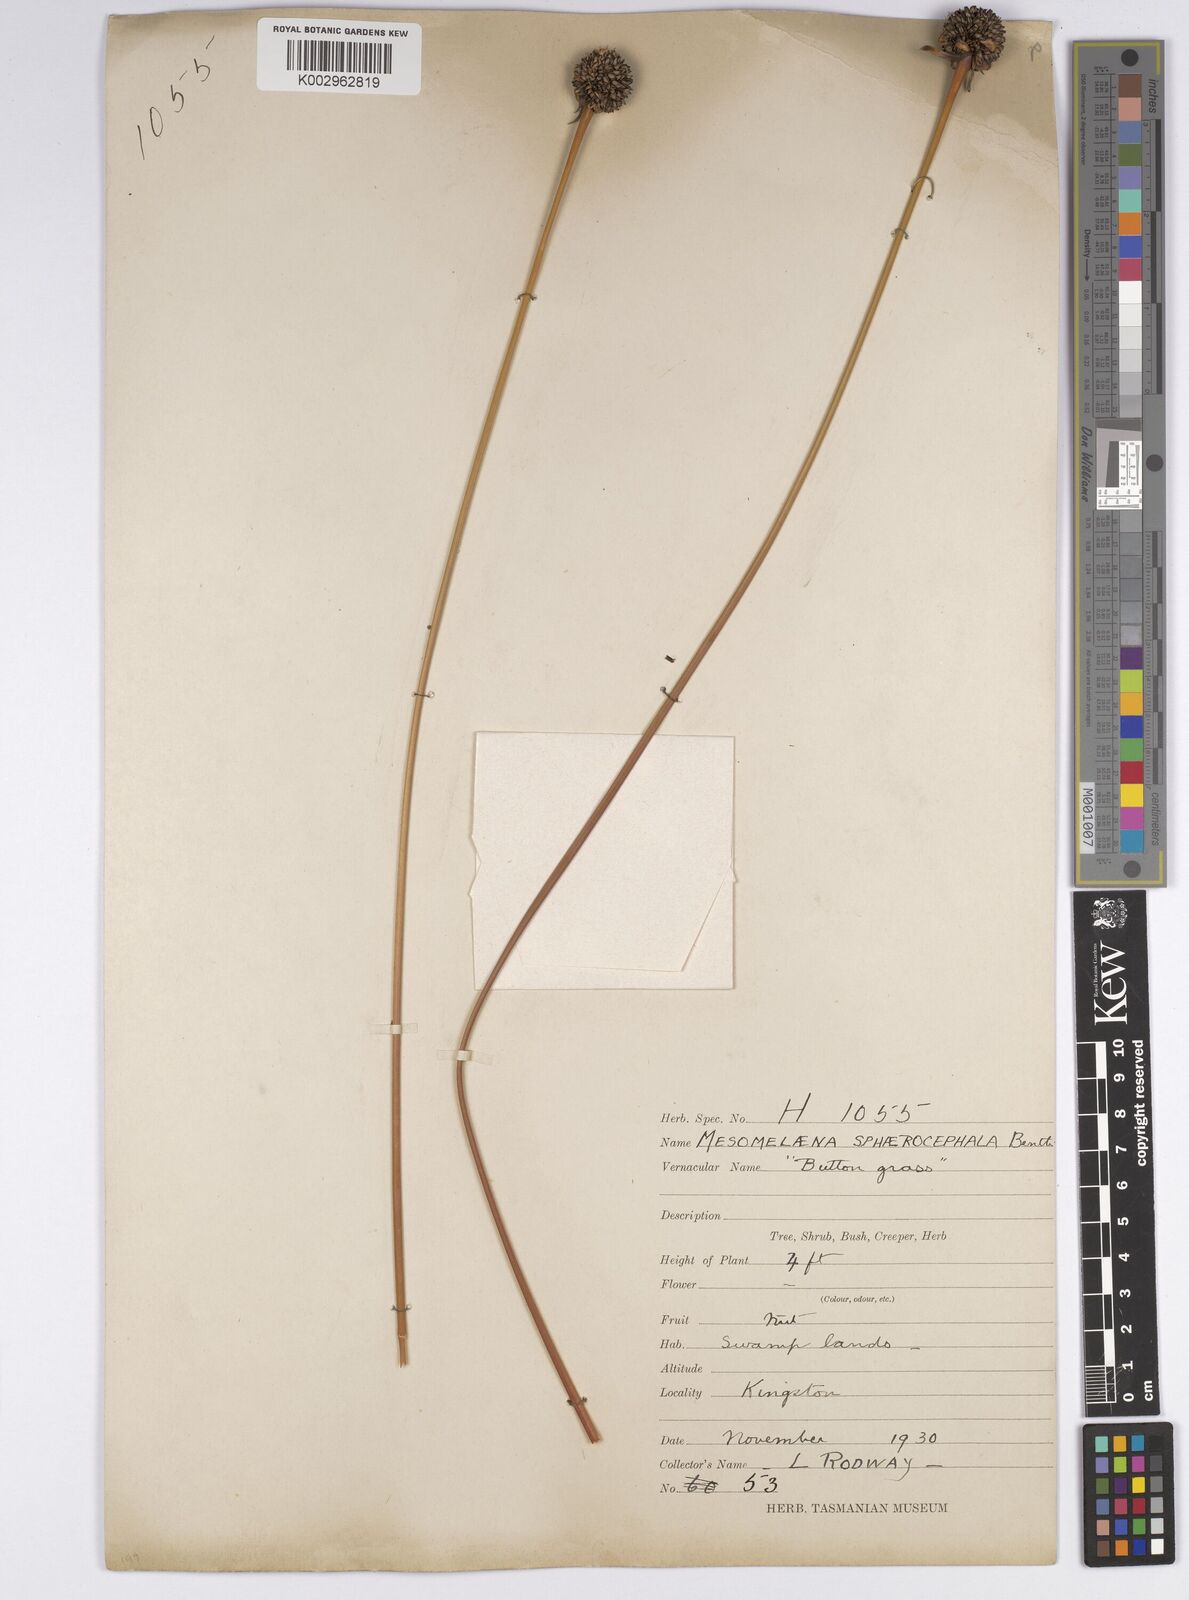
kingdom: Plantae
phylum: Tracheophyta
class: Liliopsida
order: Poales
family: Cyperaceae
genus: Gymnoschoenus
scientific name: Gymnoschoenus sphaerocephalus
